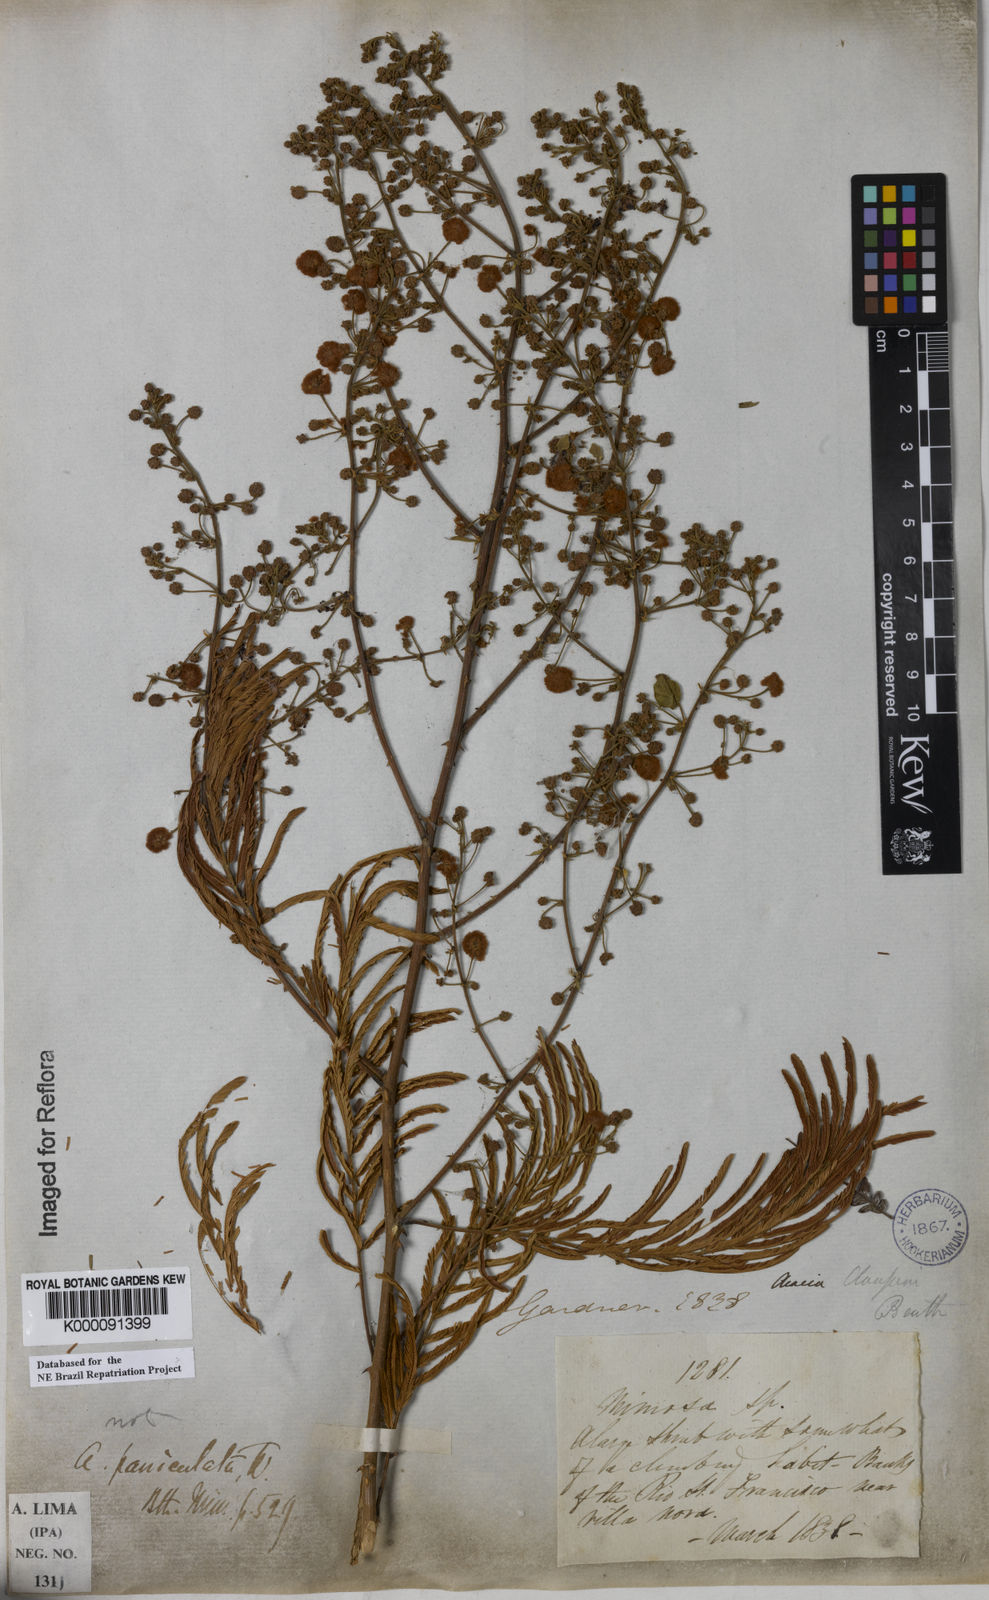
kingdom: Plantae
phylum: Tracheophyta
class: Magnoliopsida
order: Fabales
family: Fabaceae
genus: Senegalia
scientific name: Senegalia tenuifolia
